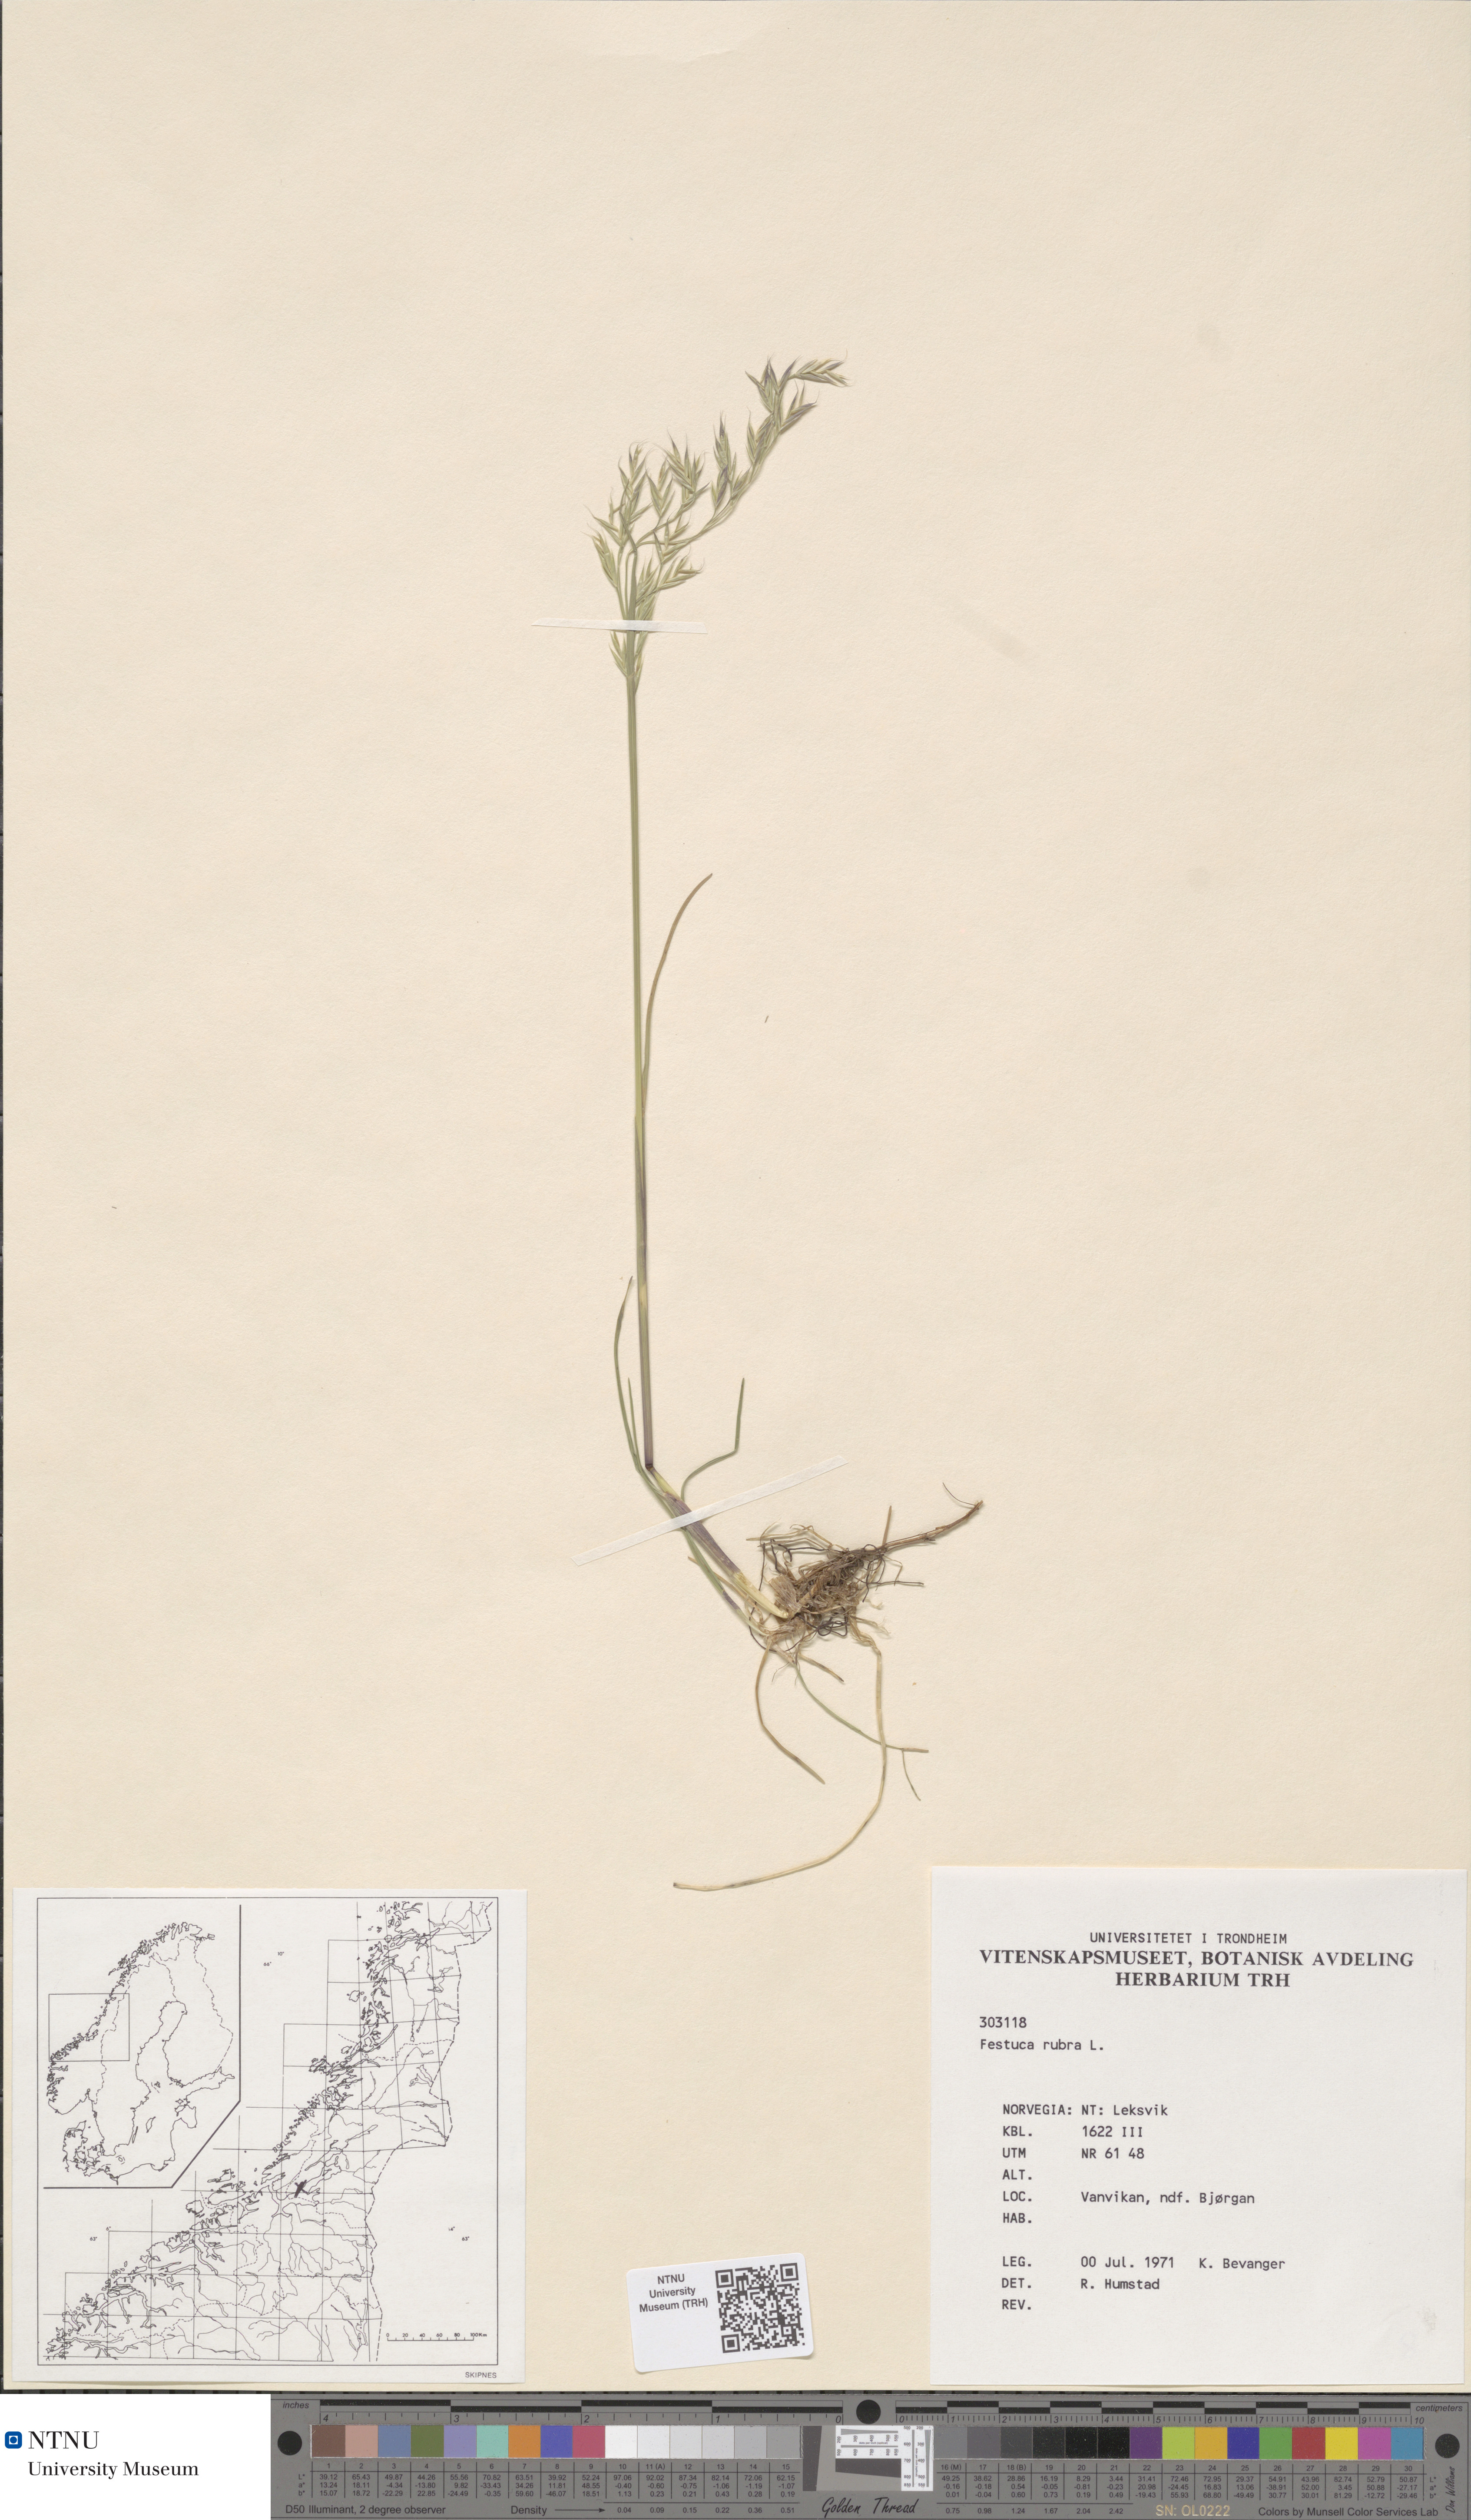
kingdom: Plantae
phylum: Tracheophyta
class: Liliopsida
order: Poales
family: Poaceae
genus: Festuca
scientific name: Festuca rubra
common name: Red fescue
